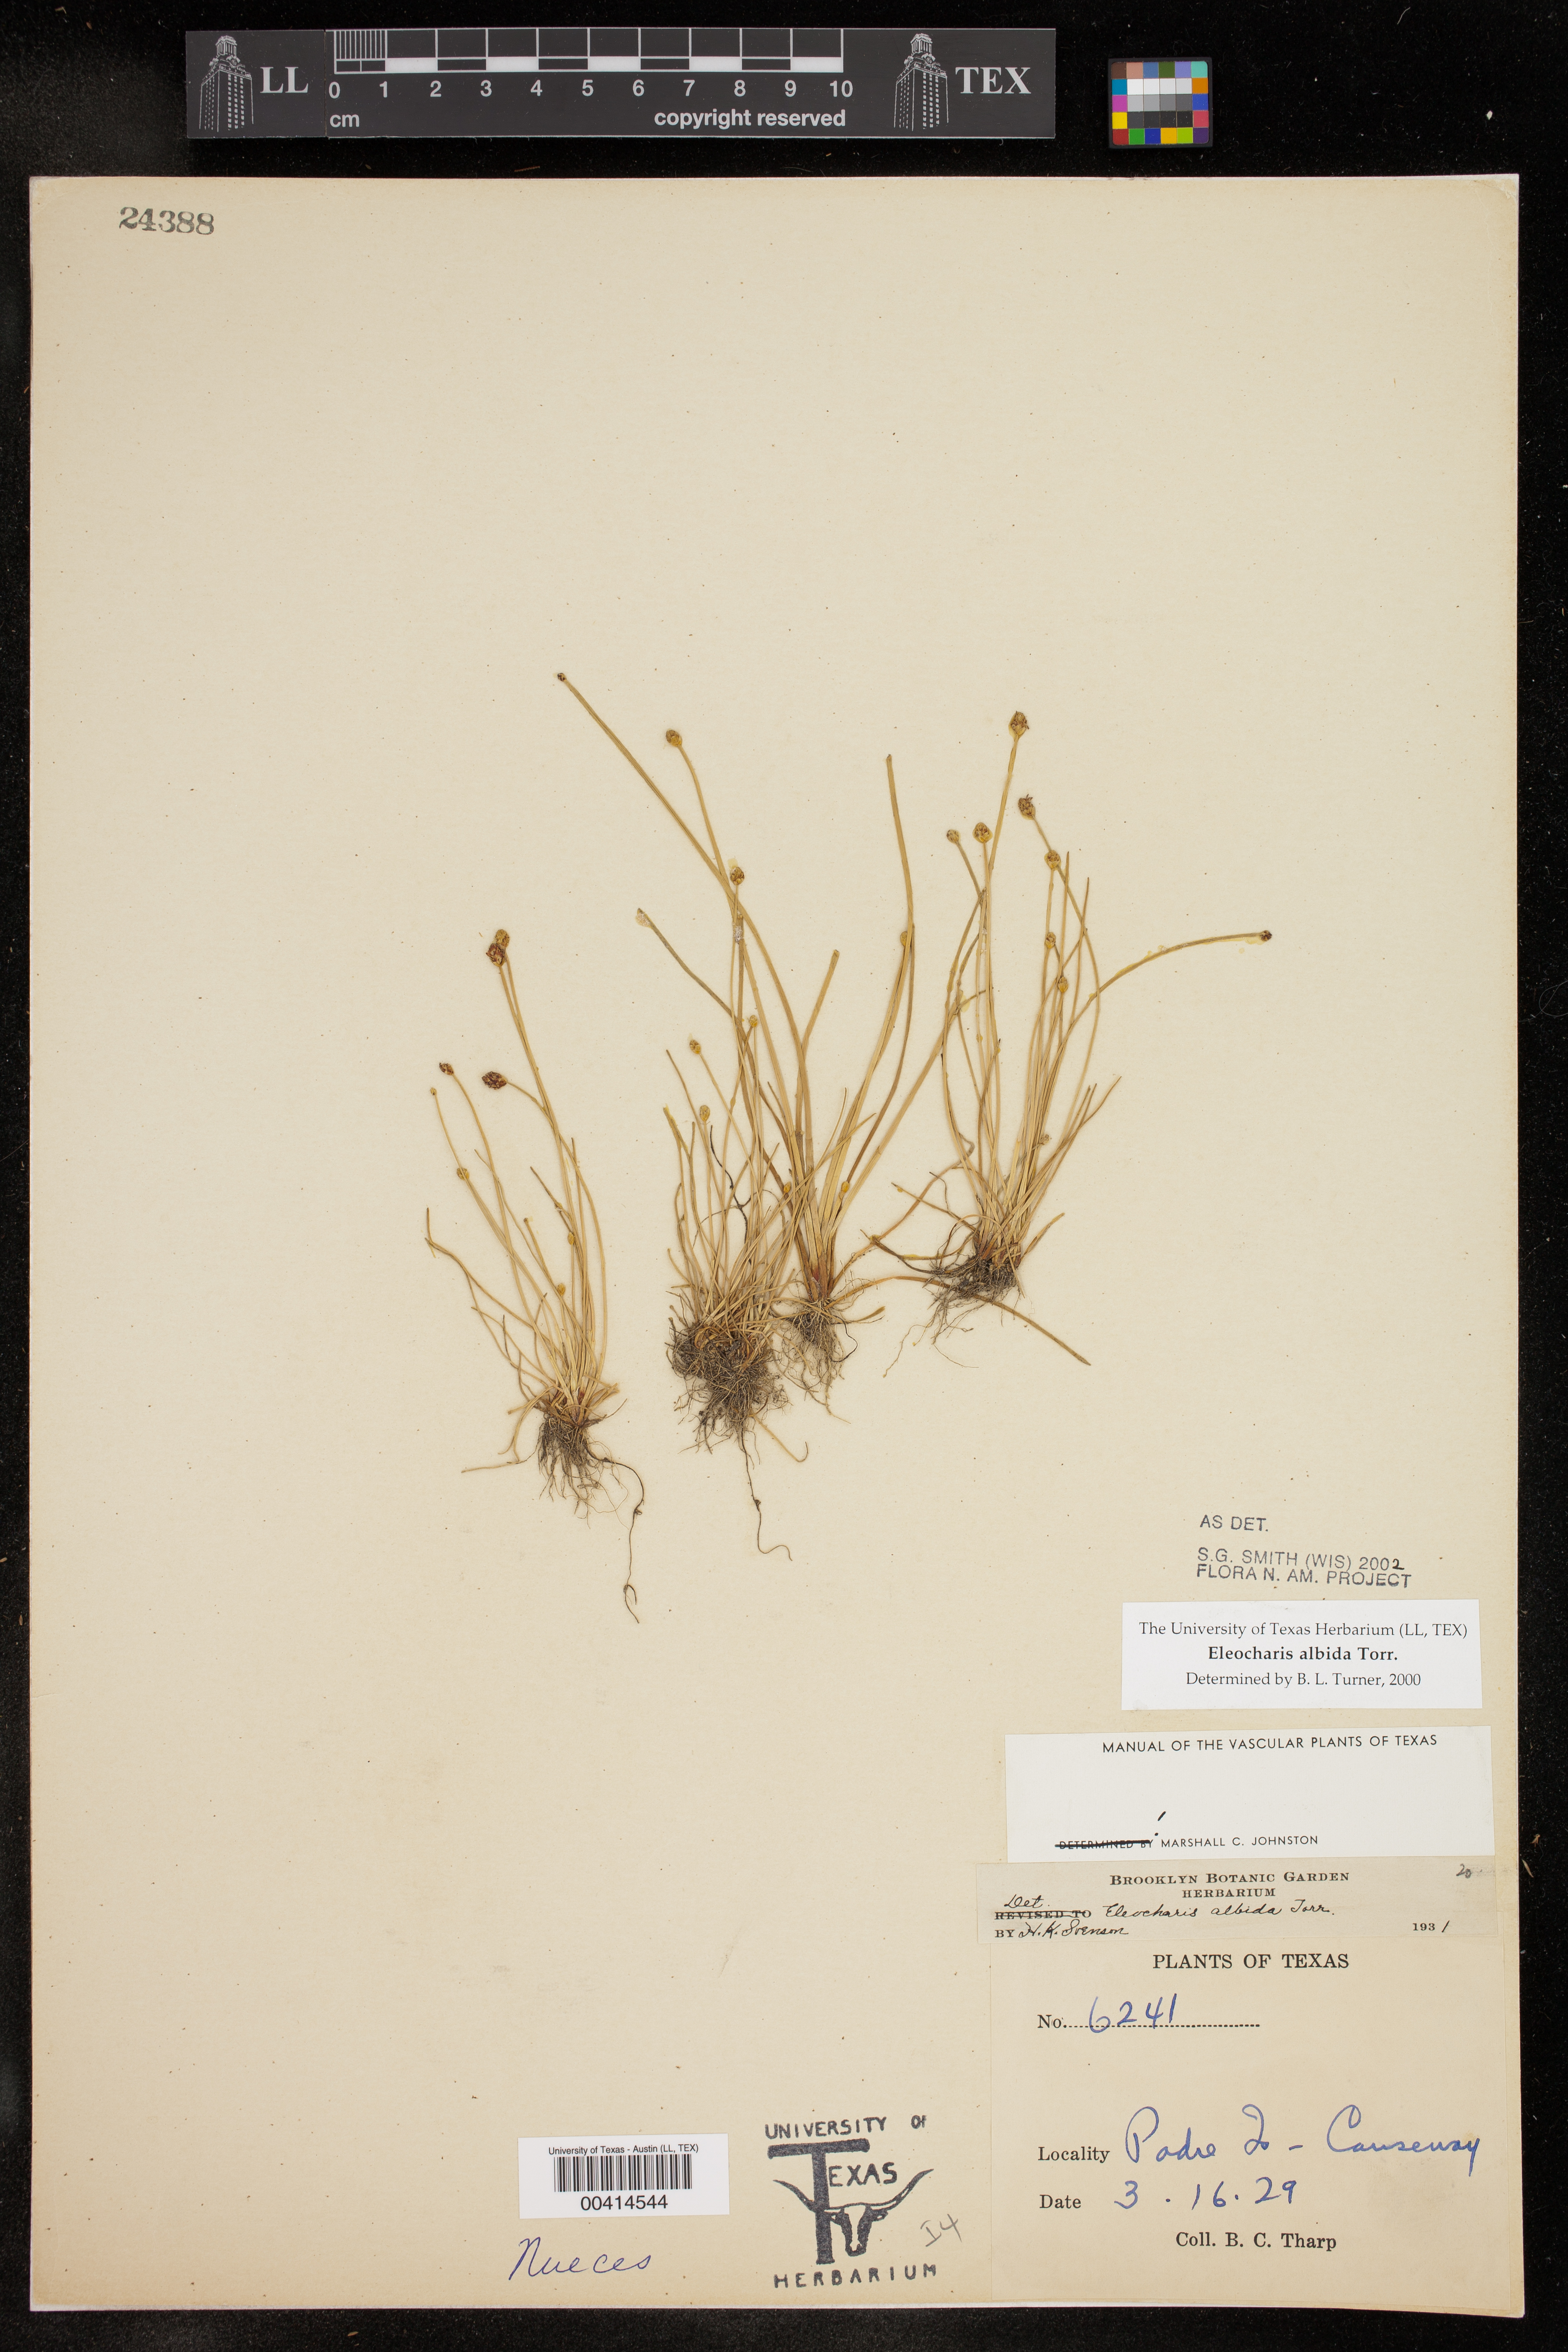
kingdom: Plantae
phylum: Tracheophyta
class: Liliopsida
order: Poales
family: Cyperaceae
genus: Eleocharis
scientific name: Eleocharis albida
